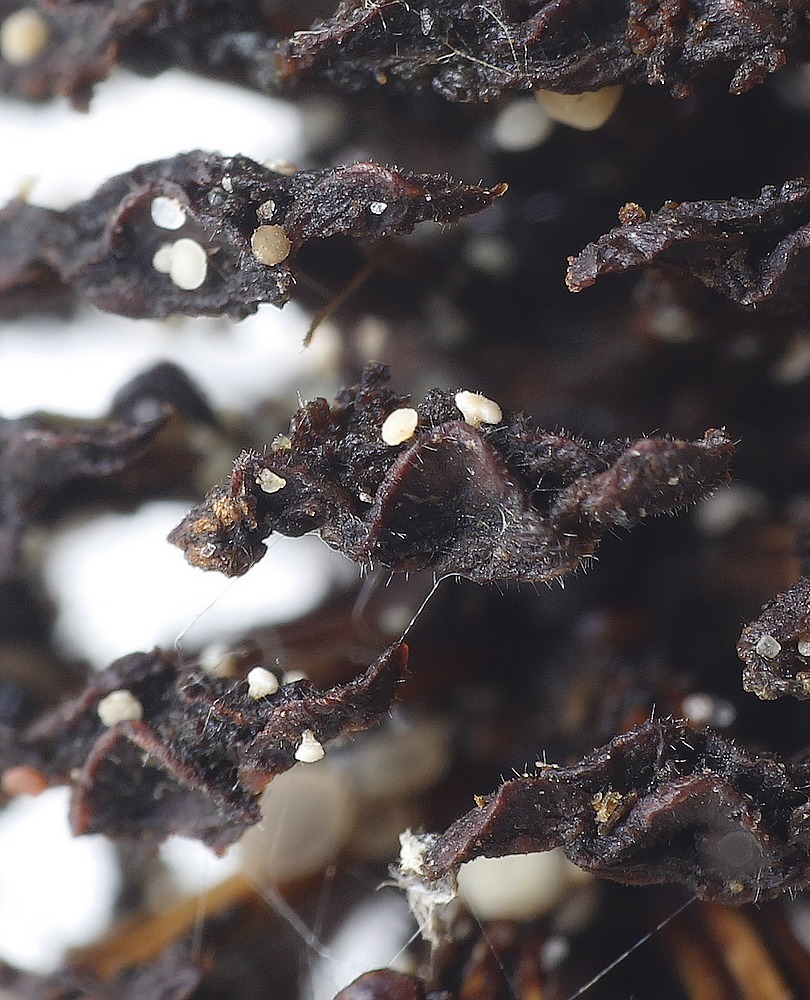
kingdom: Fungi
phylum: Ascomycota
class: Leotiomycetes
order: Helotiales
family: Pezizellaceae
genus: Calycina
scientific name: Calycina alniella
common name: ellekogle-stilkskive
